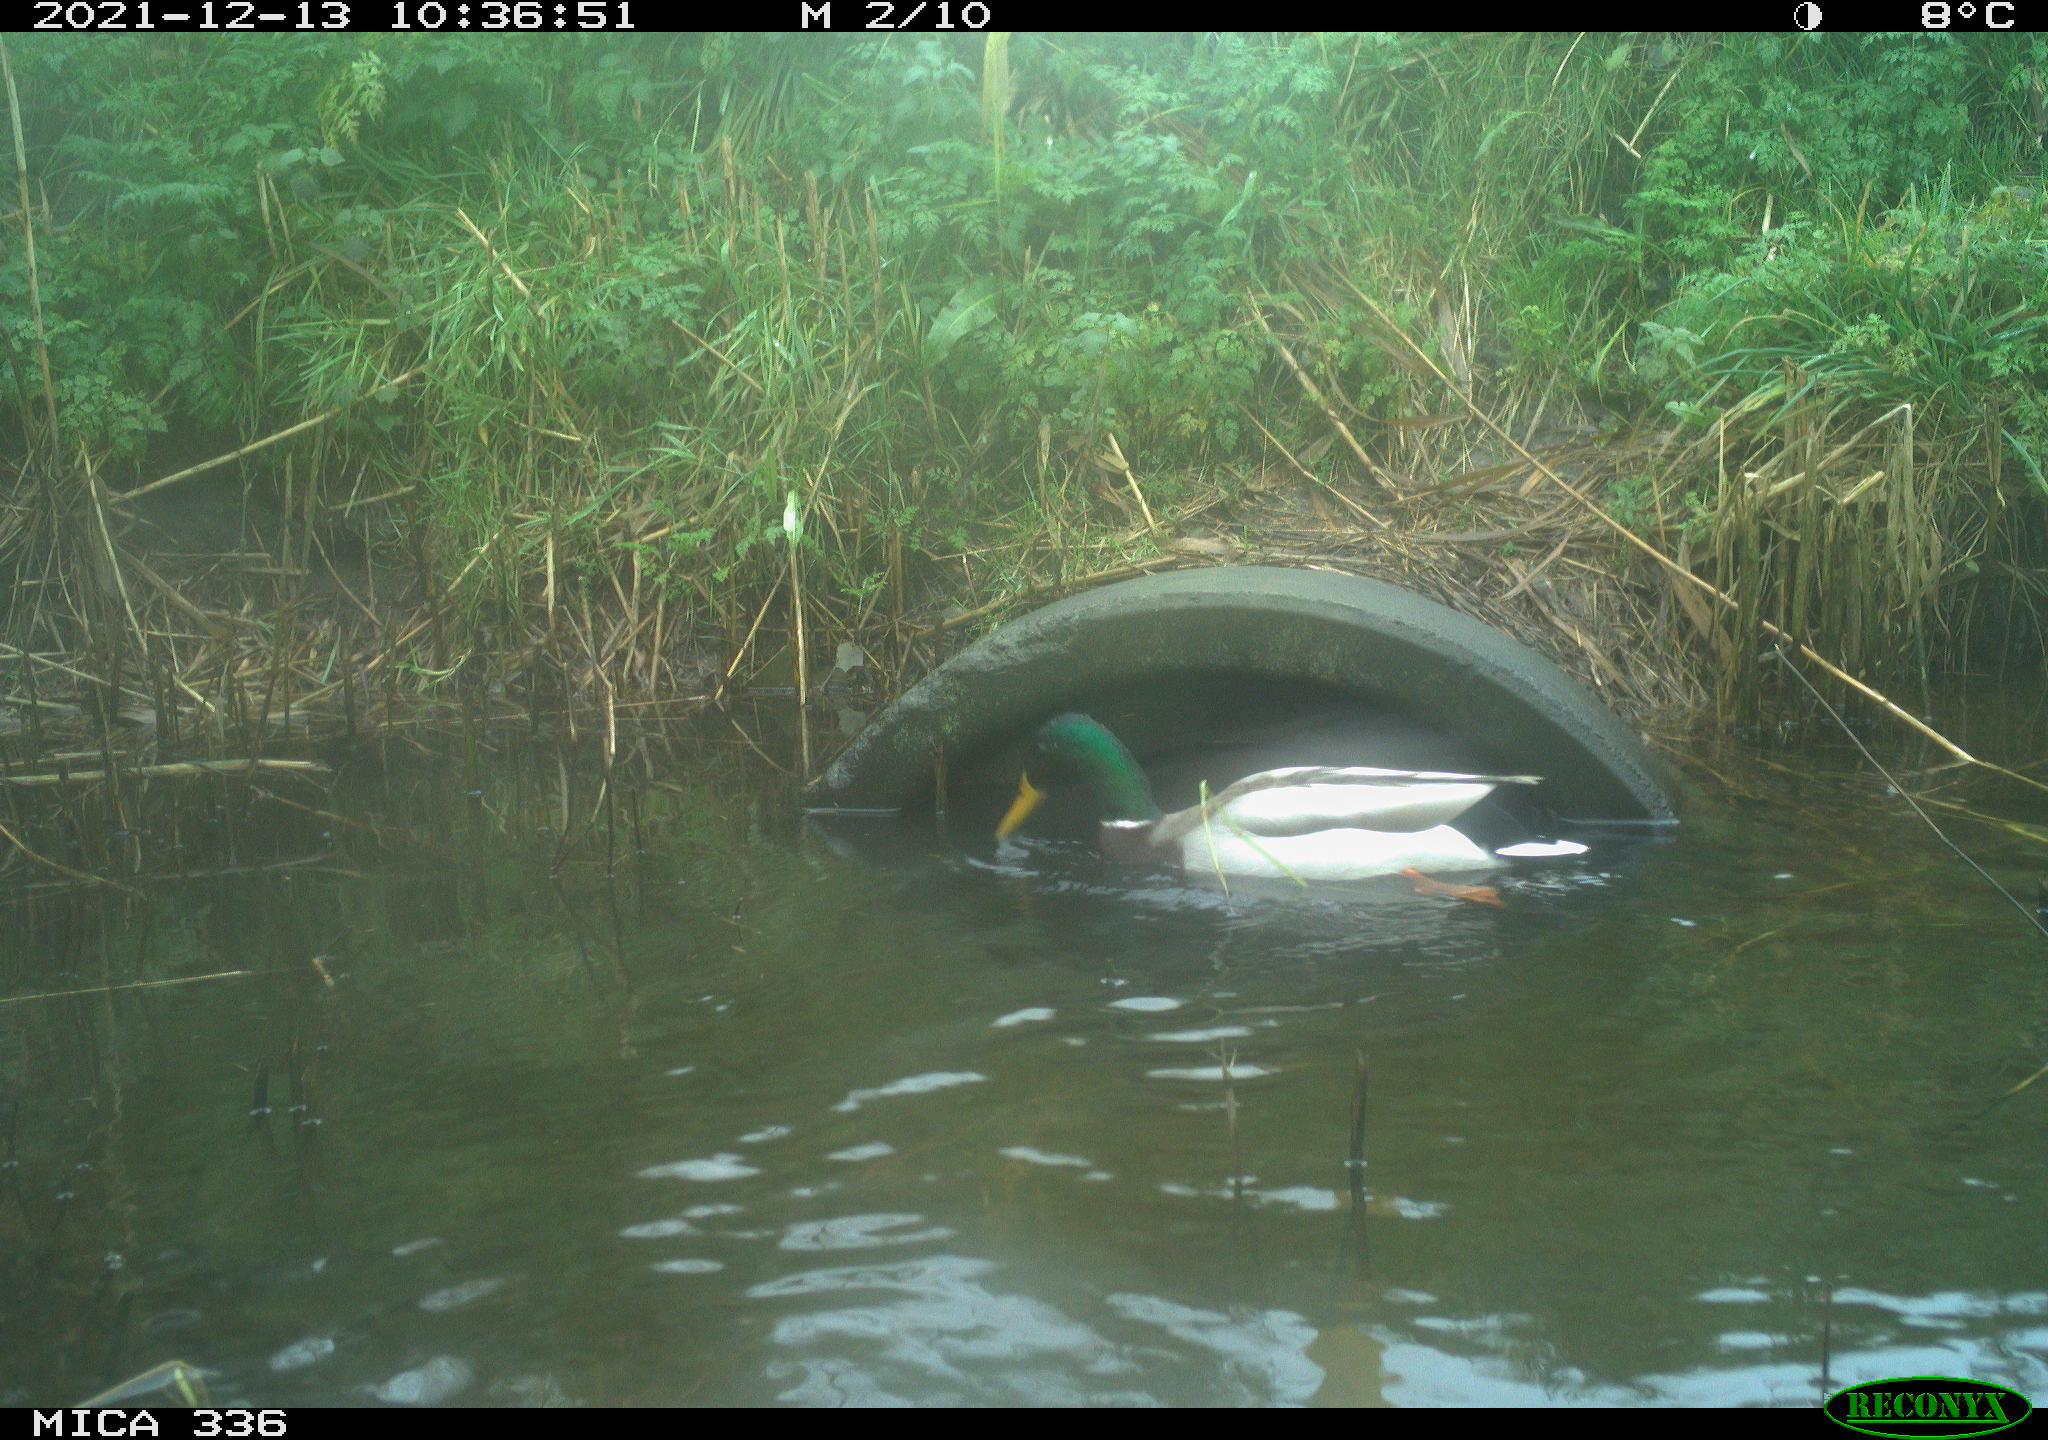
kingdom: Animalia
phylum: Chordata
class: Aves
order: Anseriformes
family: Anatidae
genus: Anas
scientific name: Anas platyrhynchos
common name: Mallard
